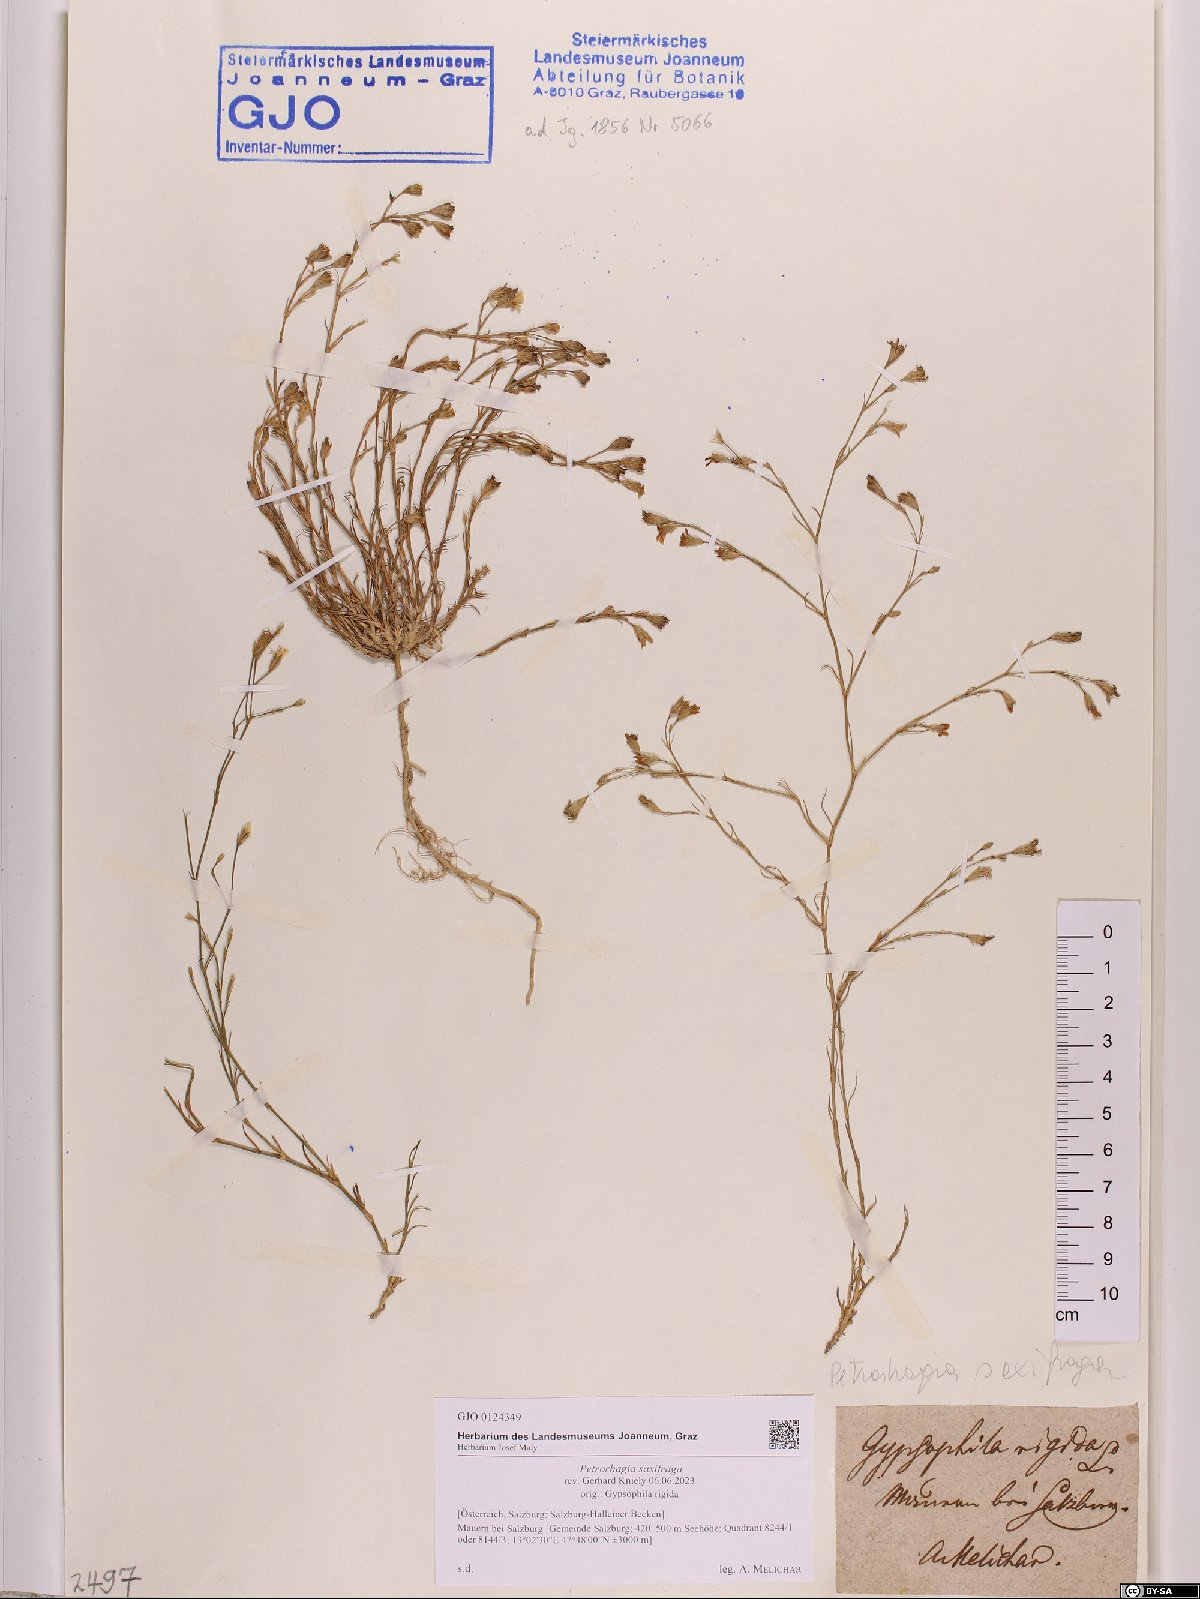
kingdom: Plantae
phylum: Tracheophyta
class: Magnoliopsida
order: Caryophyllales
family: Caryophyllaceae
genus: Petrorhagia
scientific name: Petrorhagia saxifraga
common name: Tunicflower
